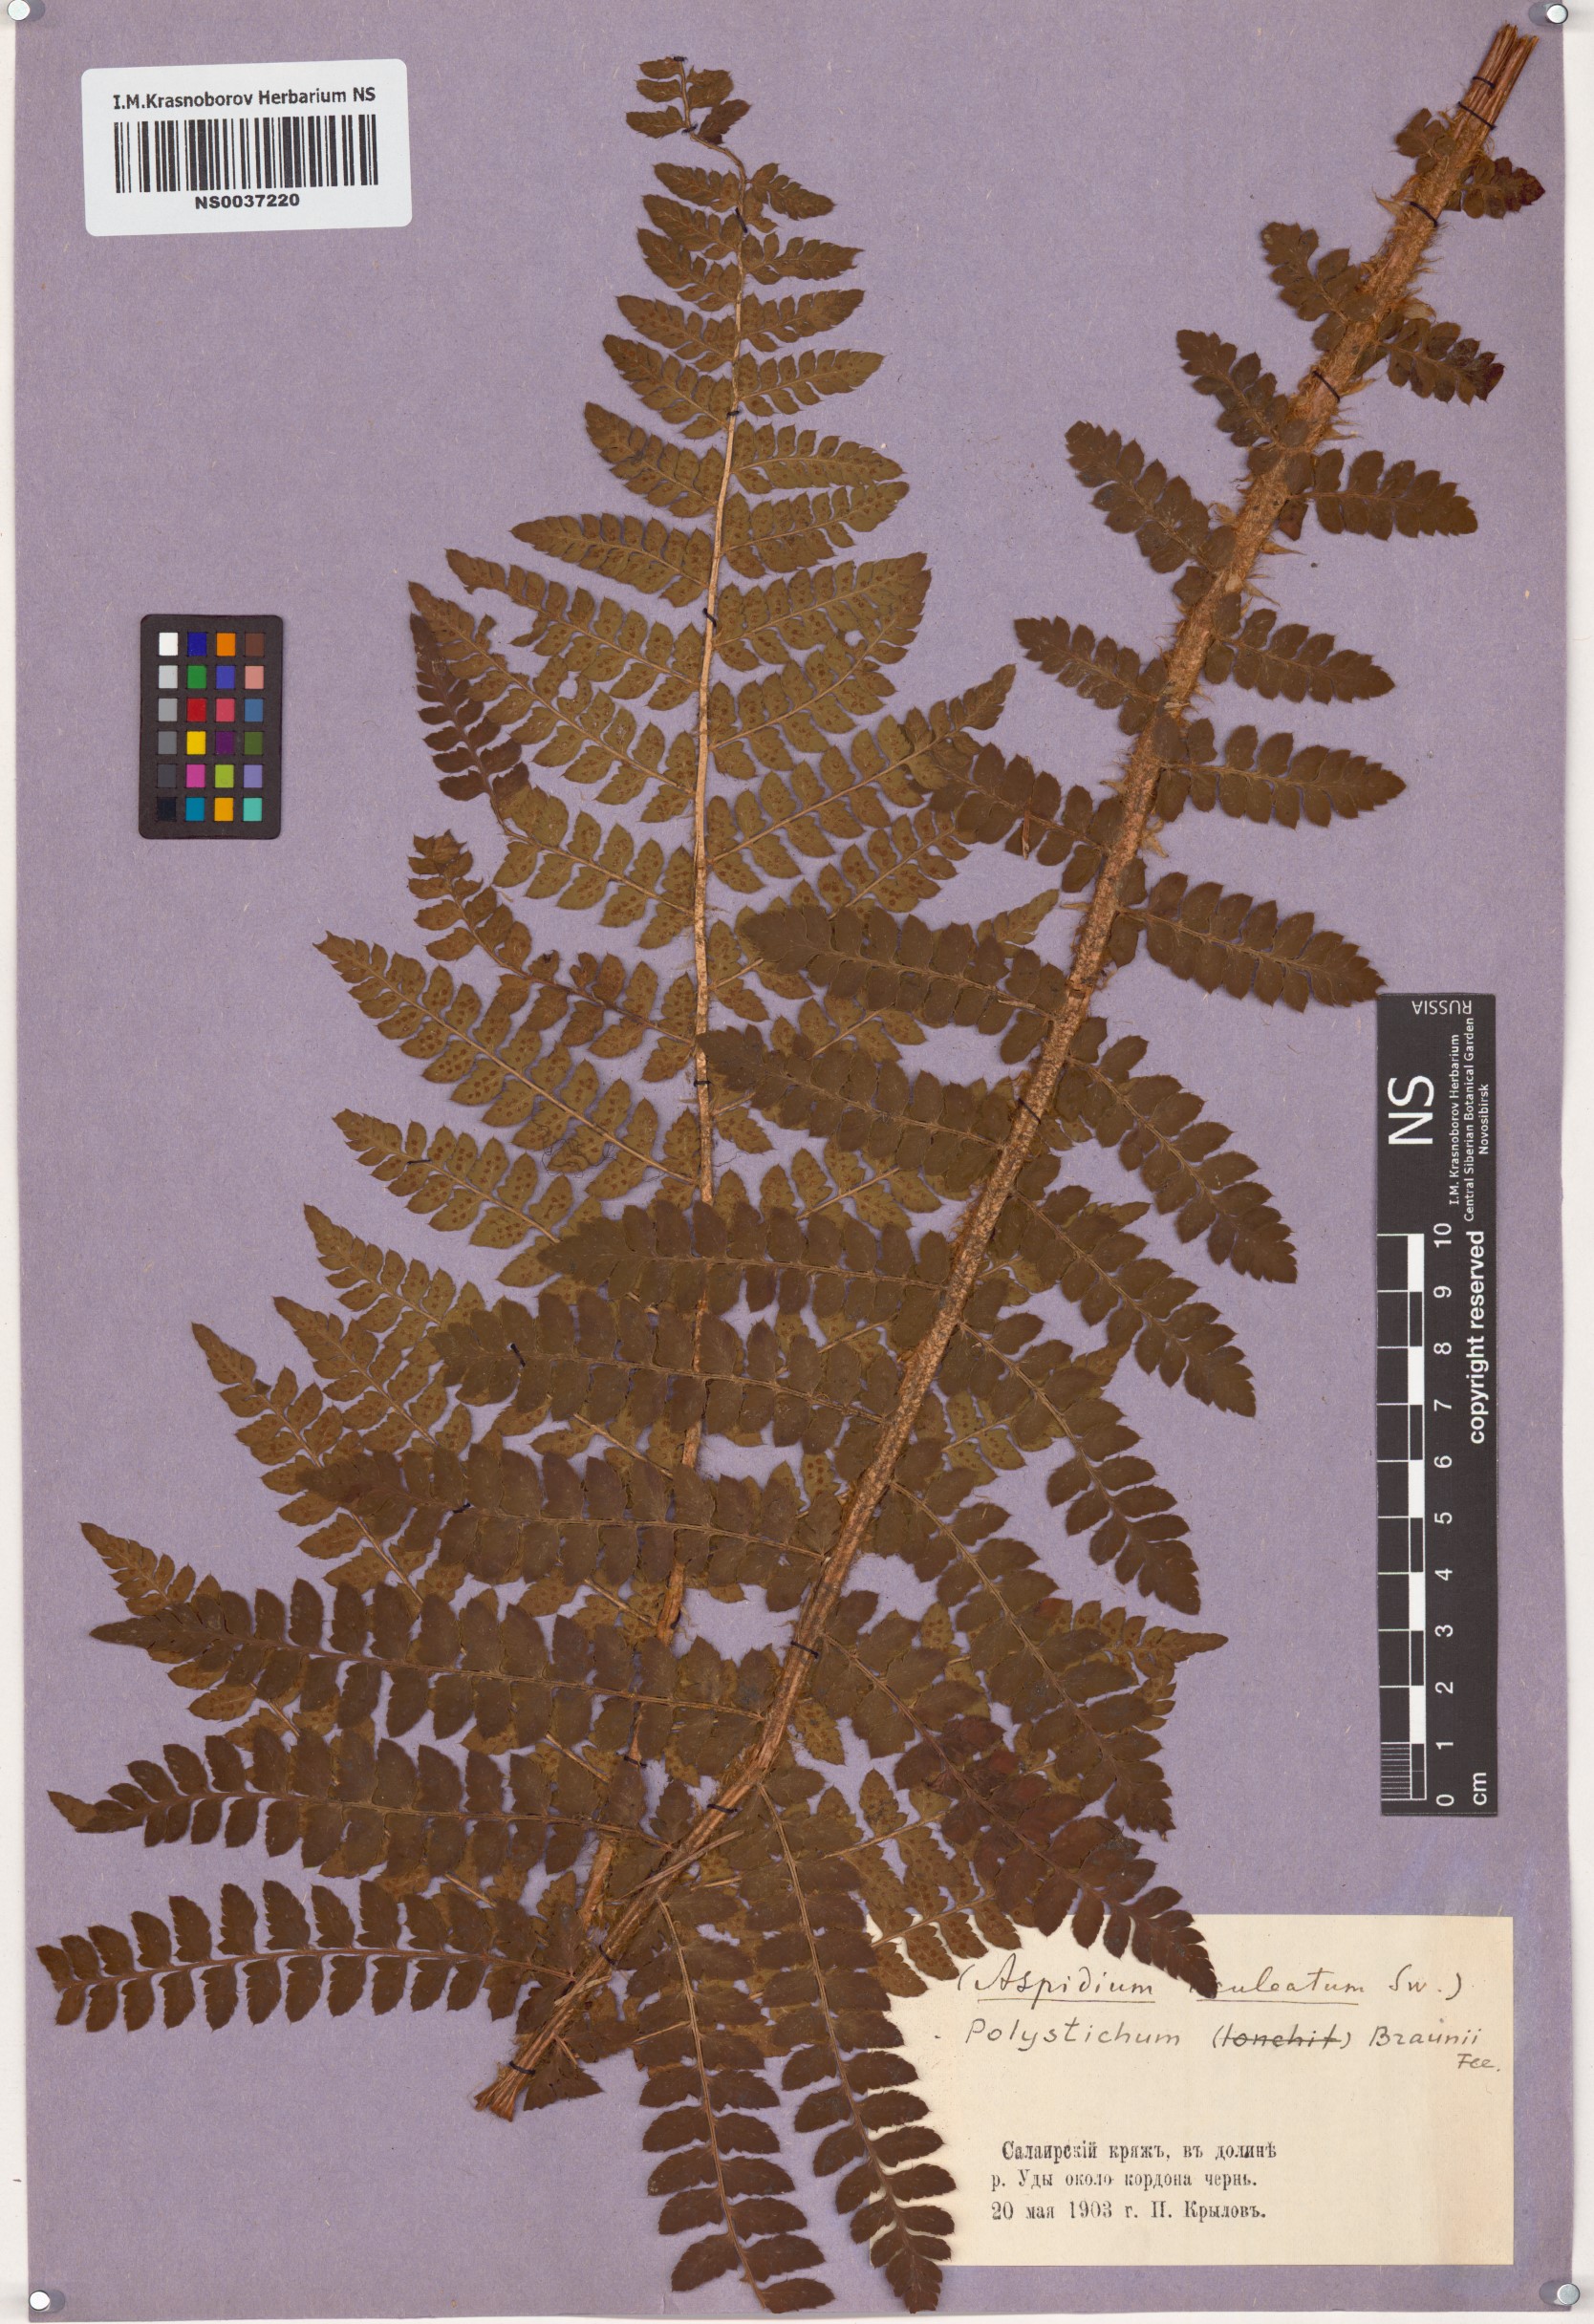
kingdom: Plantae
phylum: Tracheophyta
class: Polypodiopsida
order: Polypodiales
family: Dryopteridaceae
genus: Polystichum
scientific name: Polystichum braunii
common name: Braun's holly fern
